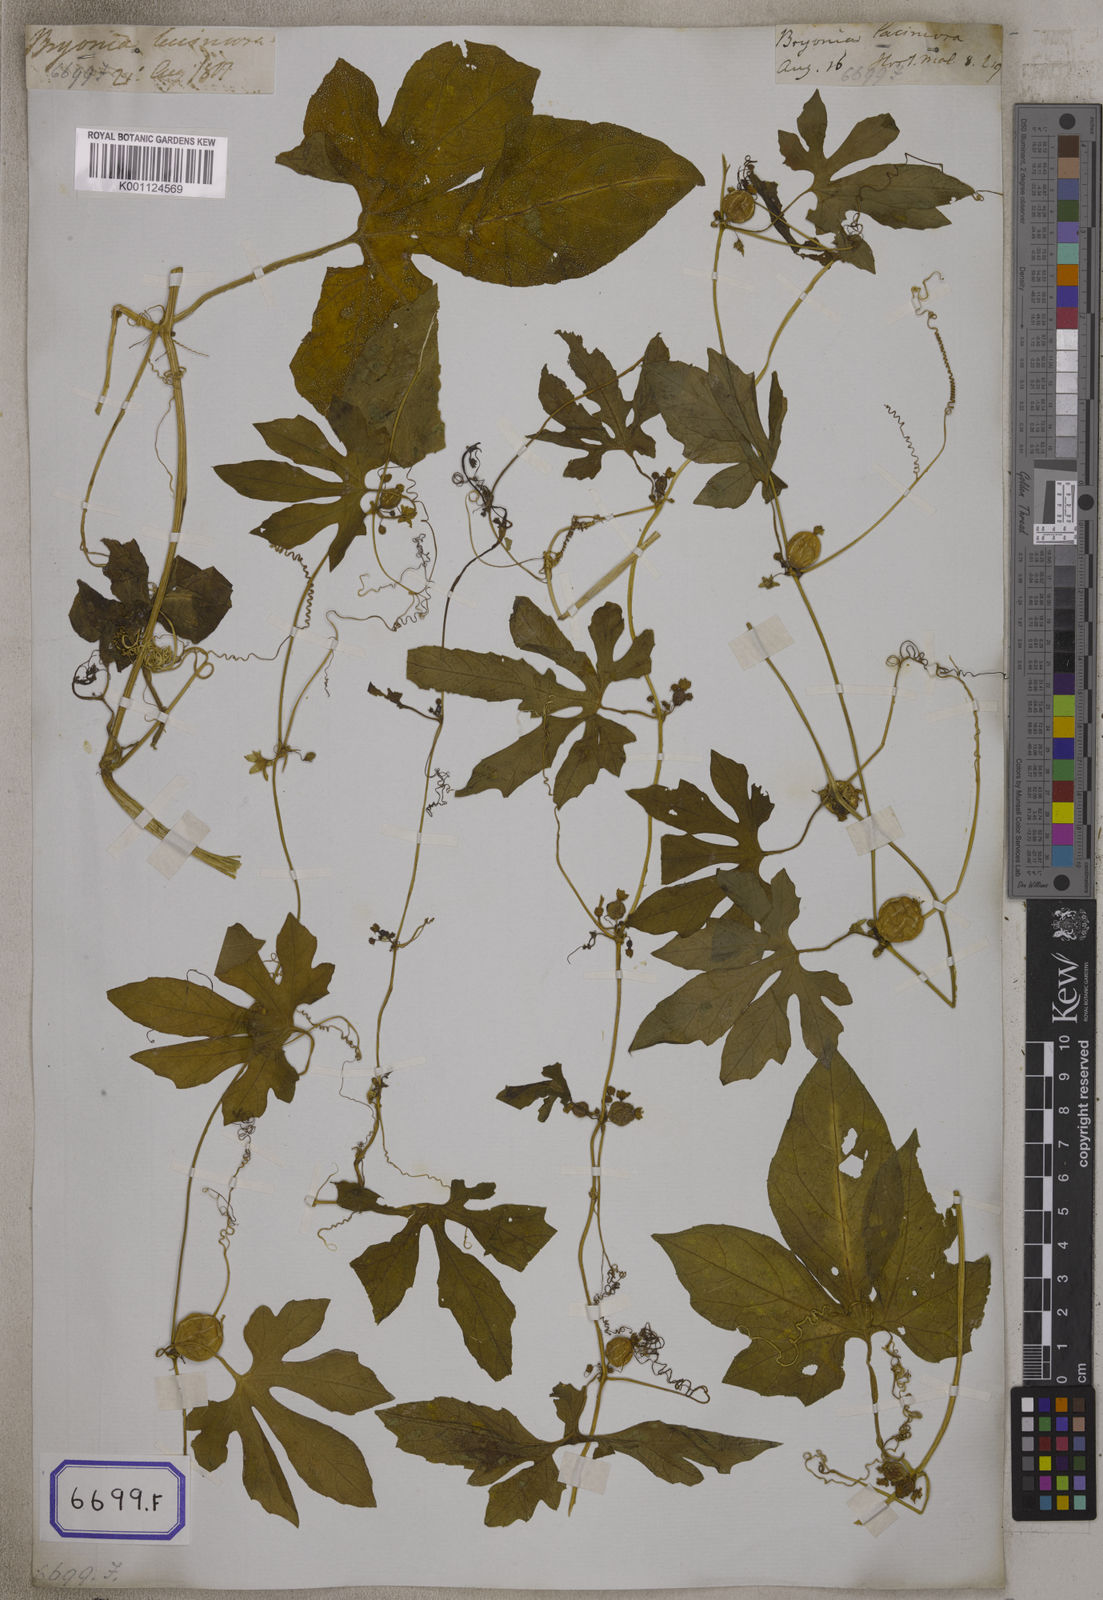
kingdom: Plantae
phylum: Tracheophyta
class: Magnoliopsida
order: Cucurbitales
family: Cucurbitaceae
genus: Diplocyclos
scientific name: Diplocyclos palmatus
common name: Striped-cucumber
